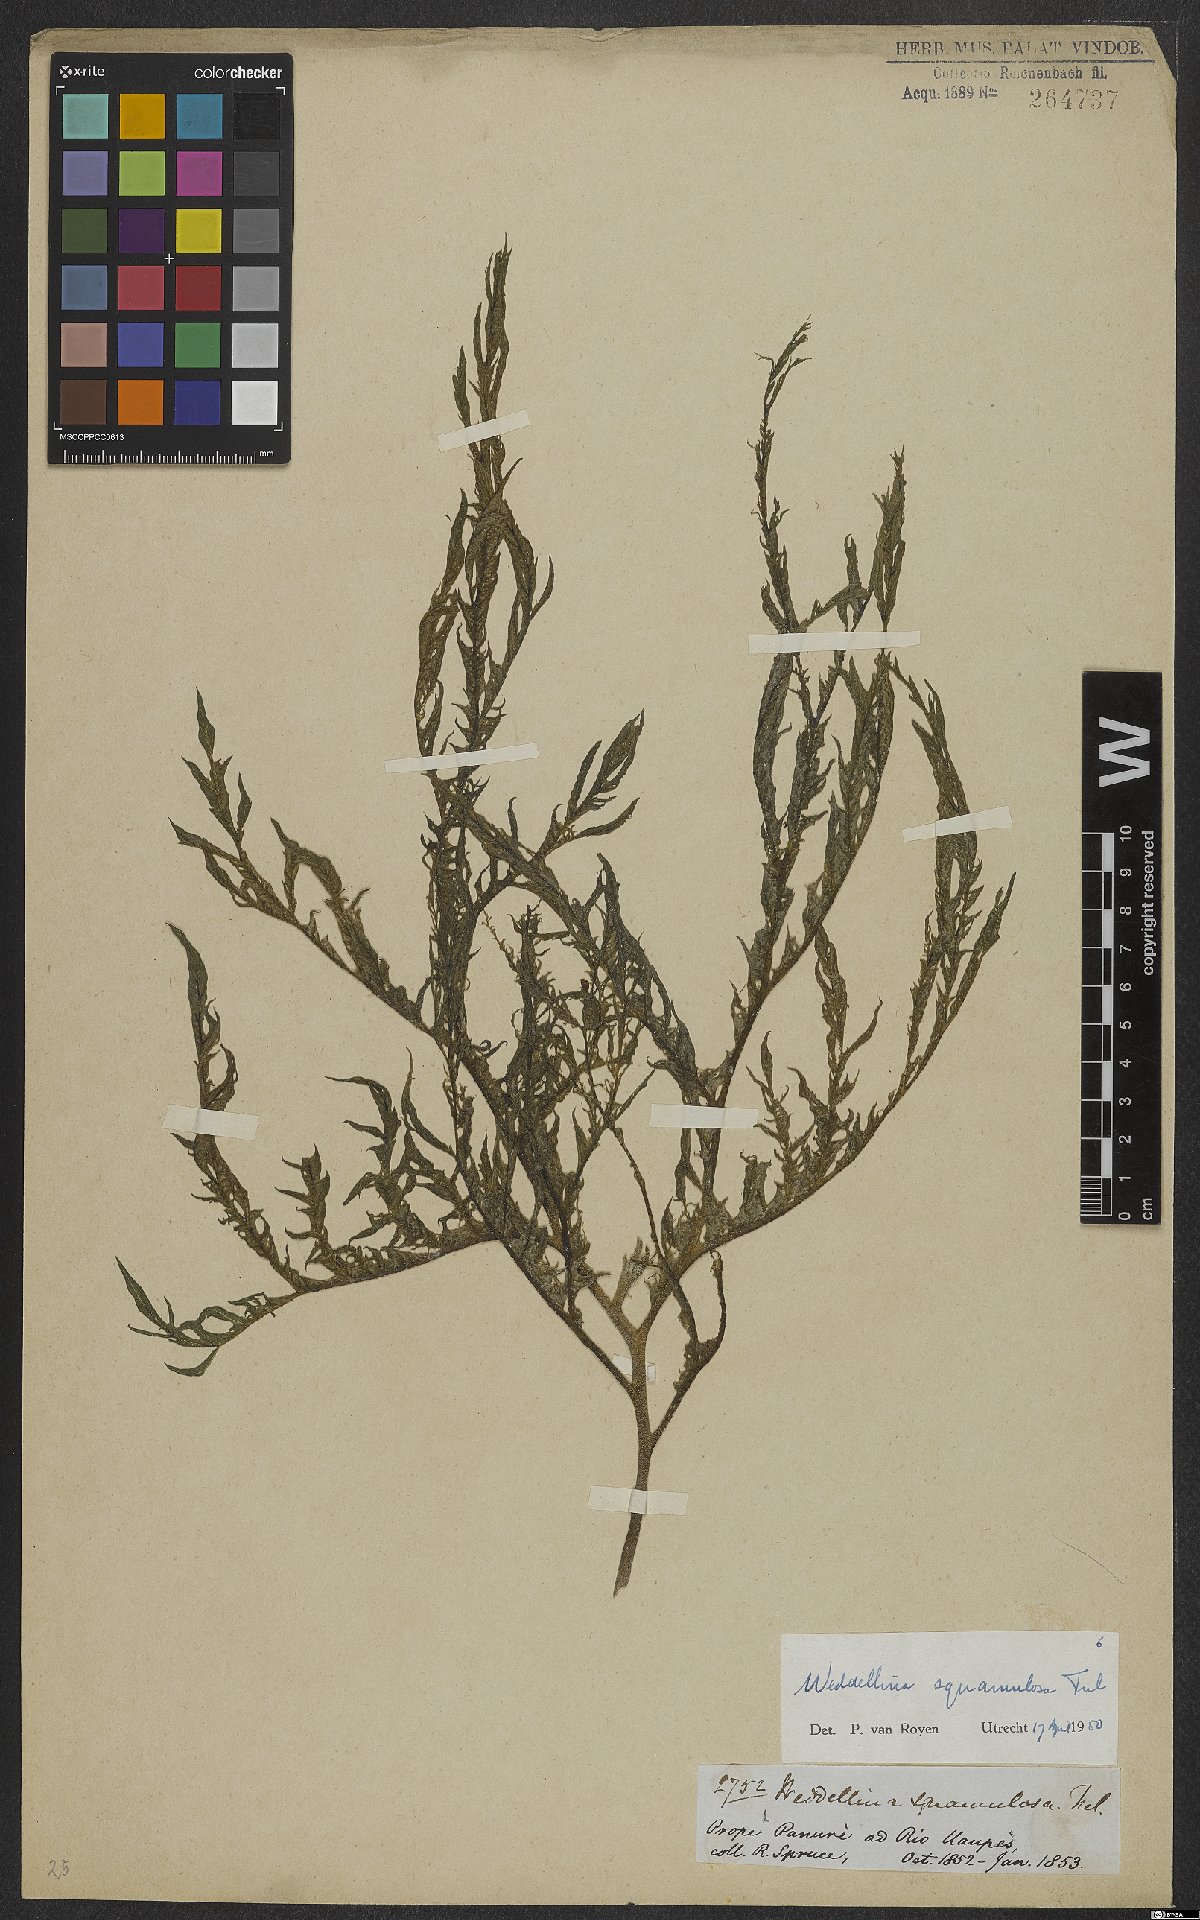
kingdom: Plantae
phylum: Tracheophyta
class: Magnoliopsida
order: Malpighiales
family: Podostemaceae
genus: Weddellina
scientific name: Weddellina squamulosa
